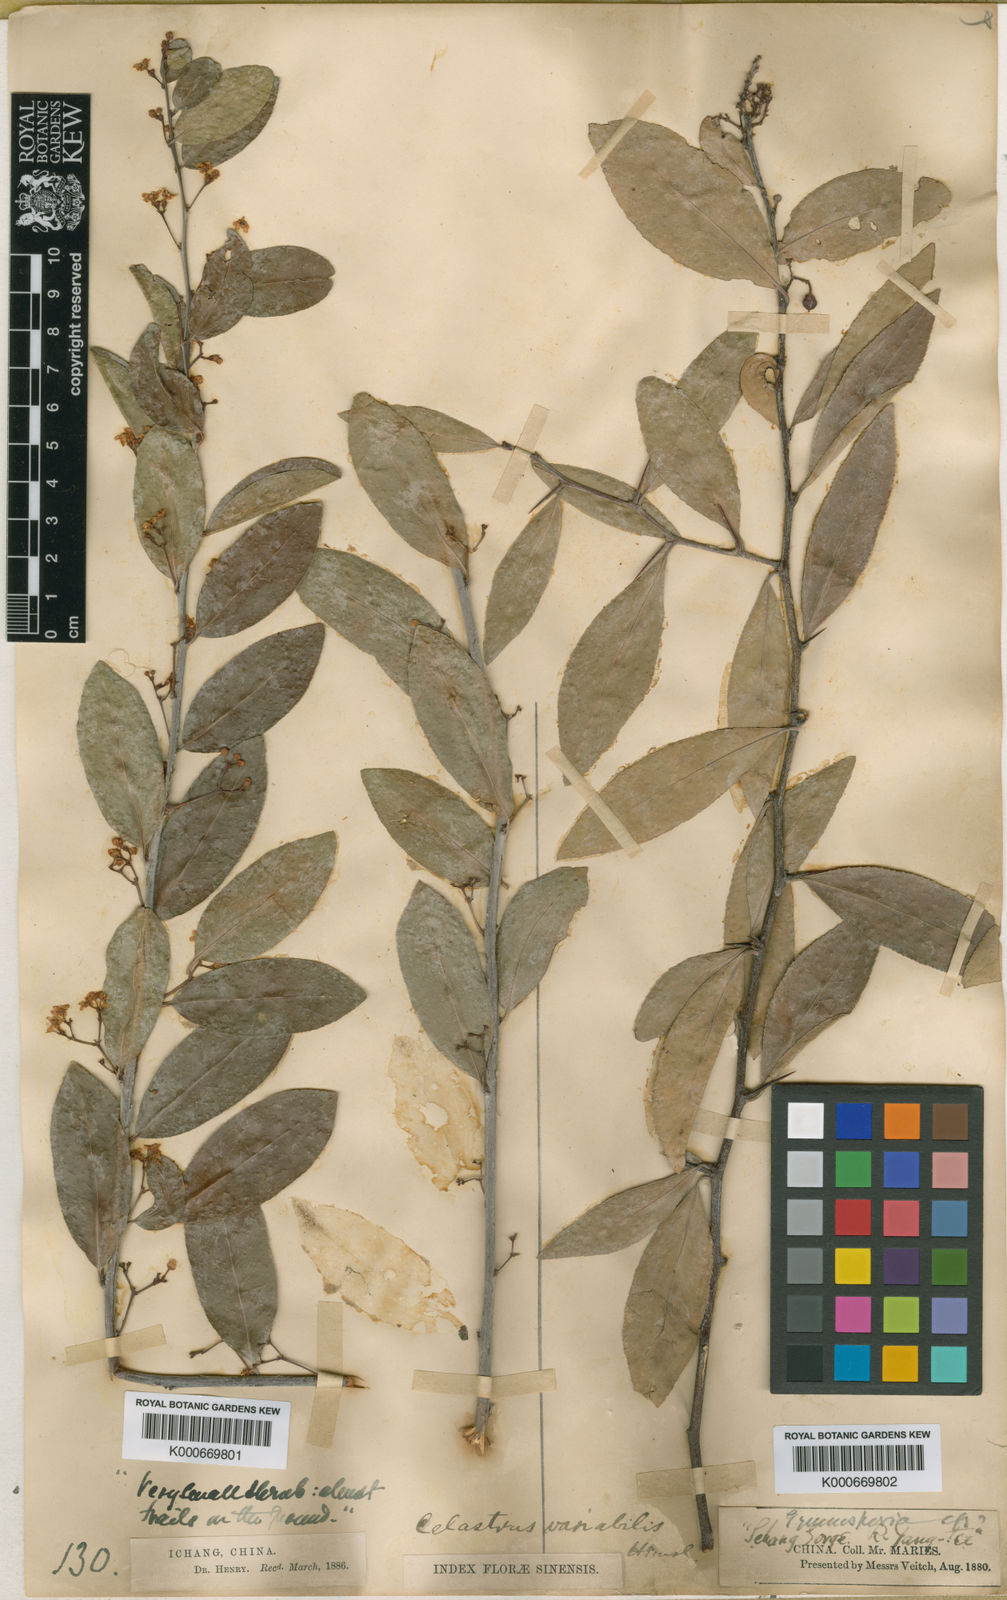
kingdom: Plantae
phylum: Tracheophyta
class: Magnoliopsida
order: Celastrales
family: Celastraceae
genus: Gymnosporia
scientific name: Gymnosporia variabilis
